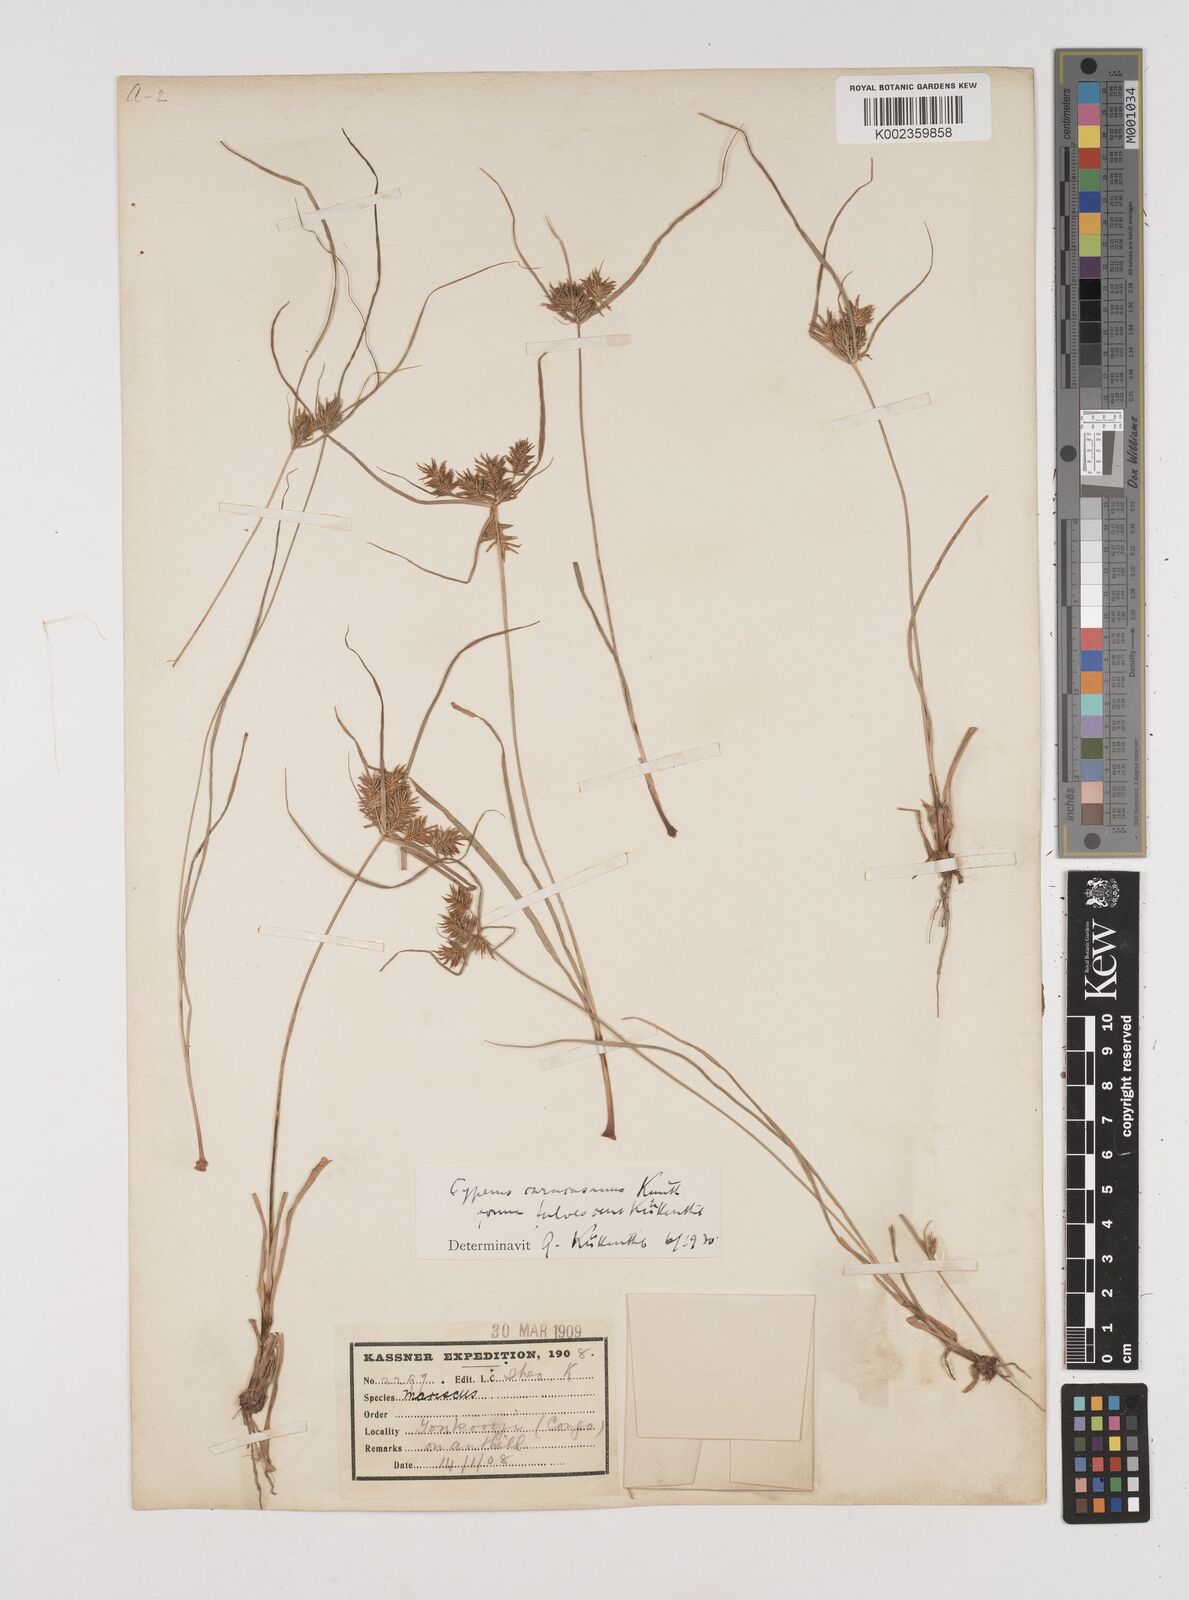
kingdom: Plantae
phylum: Tracheophyta
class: Liliopsida
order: Poales
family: Cyperaceae
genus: Cyperus
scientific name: Cyperus tenuis
